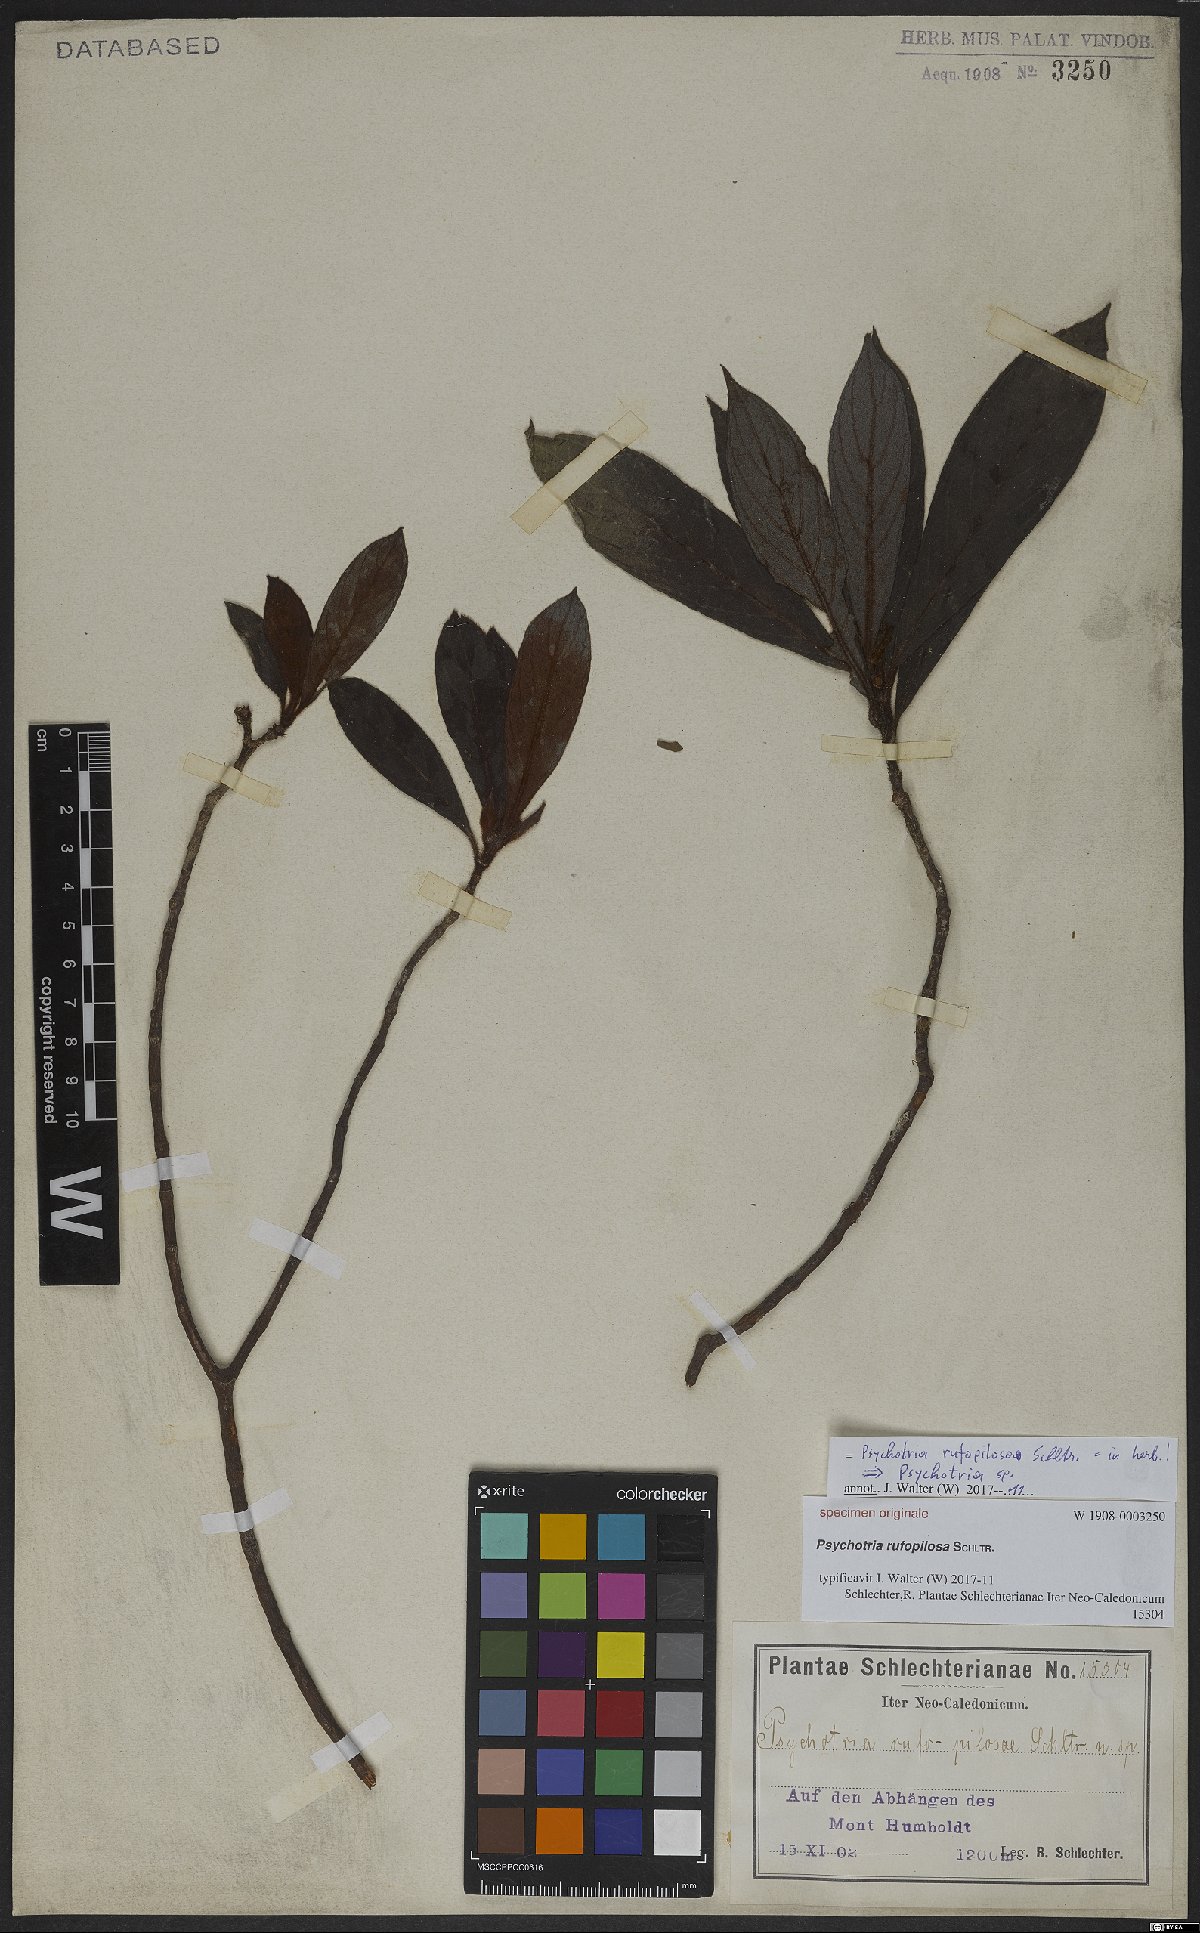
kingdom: Plantae
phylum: Tracheophyta
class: Magnoliopsida
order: Gentianales
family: Rubiaceae
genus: Psychotria
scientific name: Psychotria
